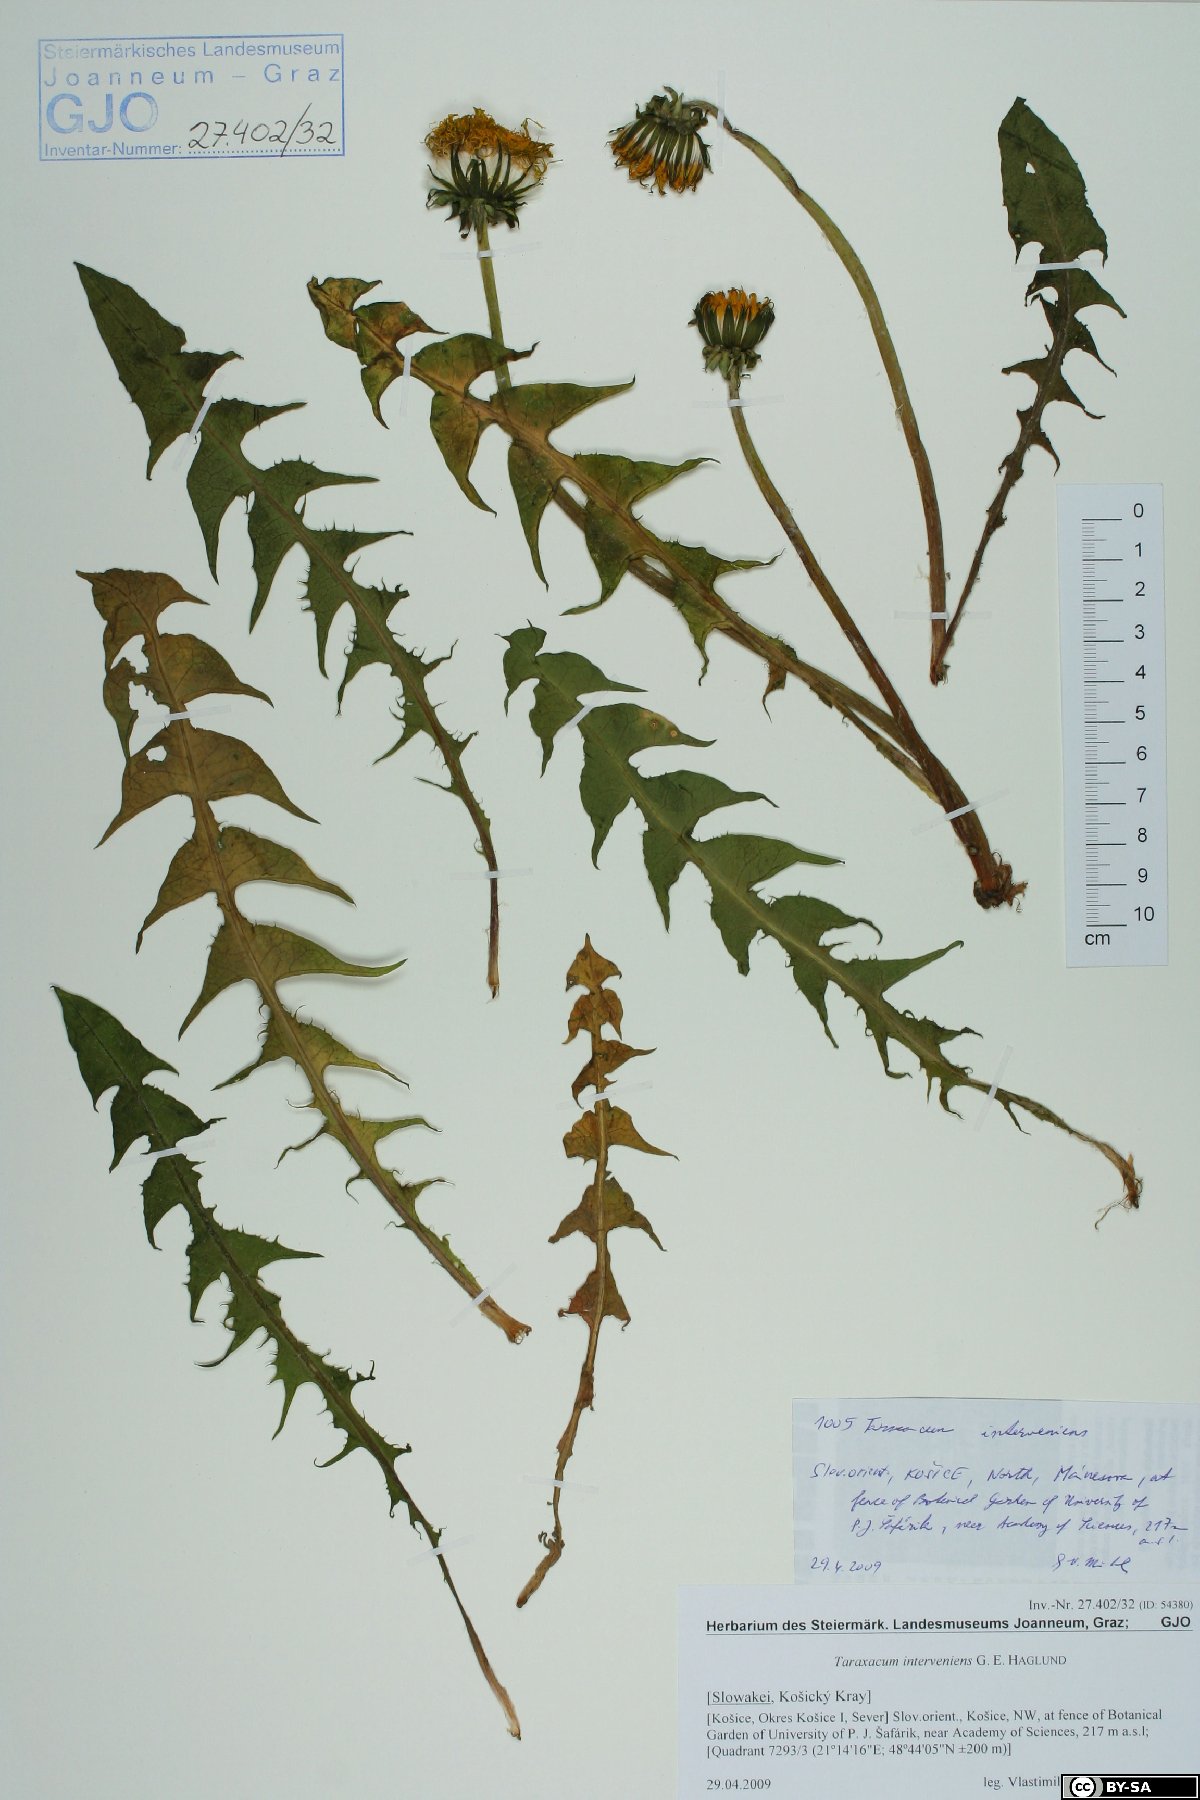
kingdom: Plantae
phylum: Tracheophyta
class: Magnoliopsida
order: Asterales
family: Asteraceae
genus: Taraxacum
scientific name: Taraxacum interveniens
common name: City dandelion
